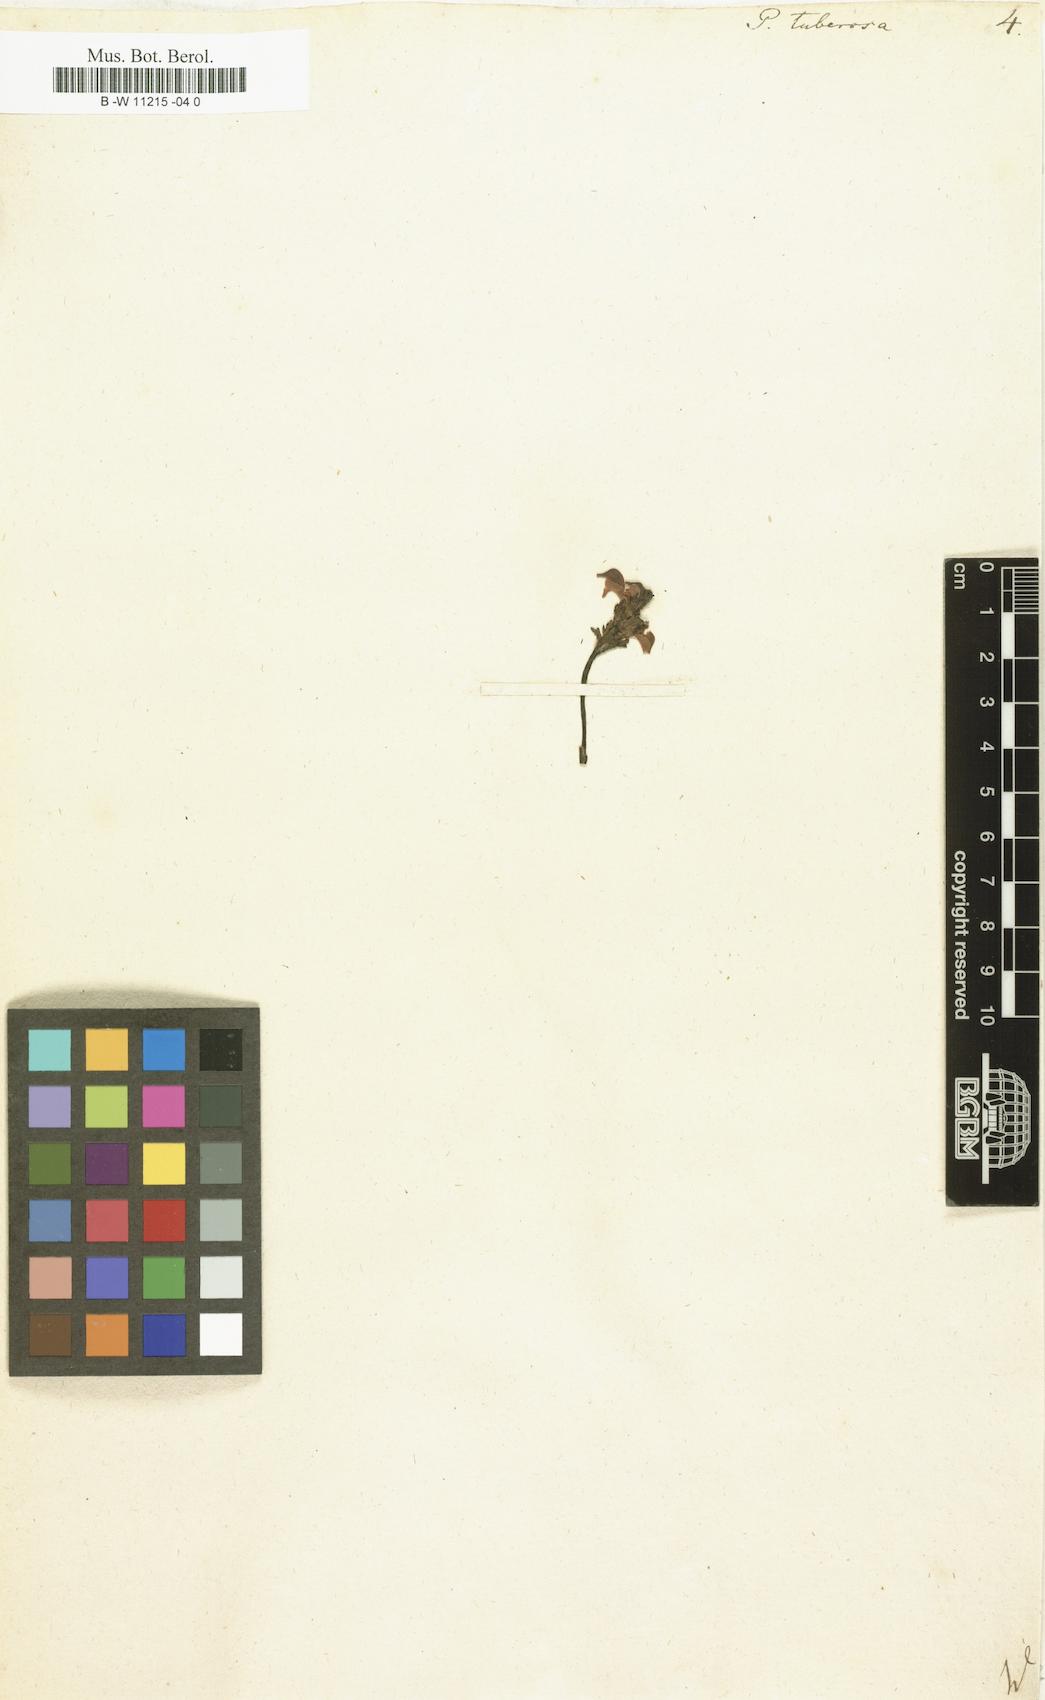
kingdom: Plantae
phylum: Tracheophyta
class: Magnoliopsida
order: Lamiales
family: Orobanchaceae
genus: Pedicularis
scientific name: Pedicularis tuberosa
